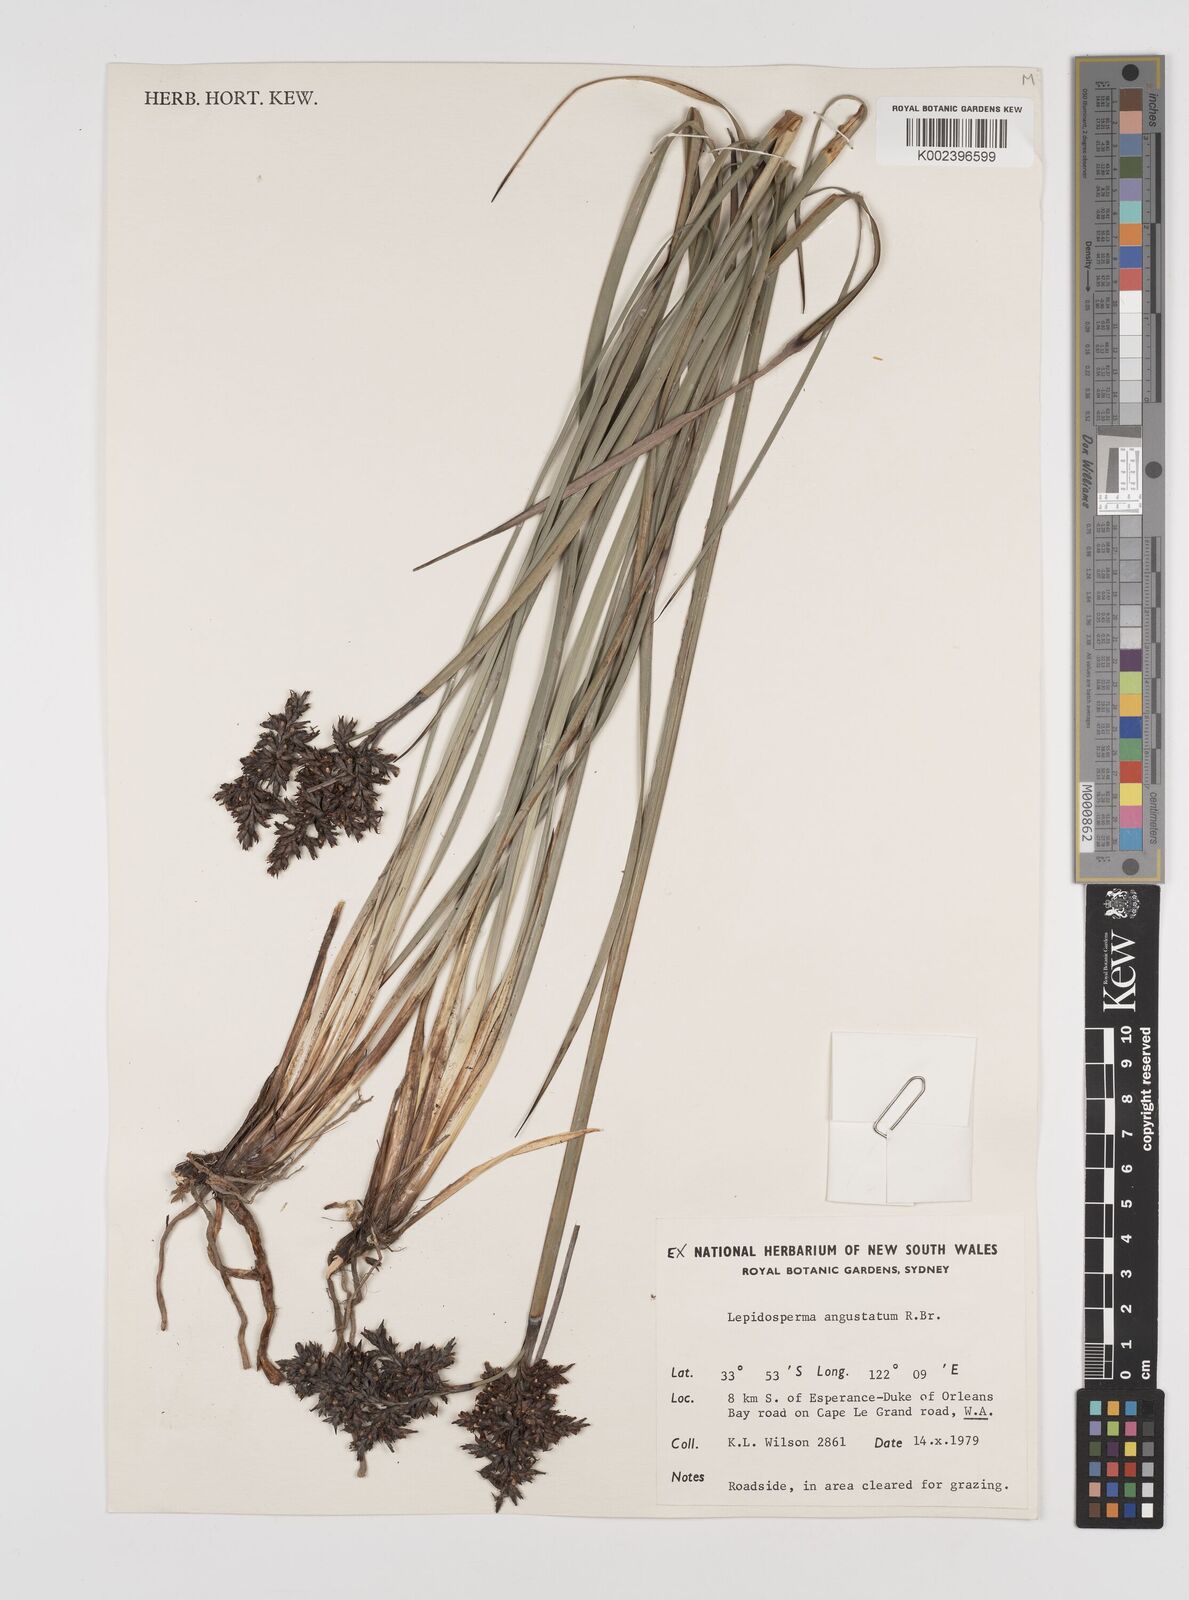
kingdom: Plantae
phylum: Tracheophyta
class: Liliopsida
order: Poales
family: Cyperaceae
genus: Lepidosperma
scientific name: Lepidosperma angustatum
